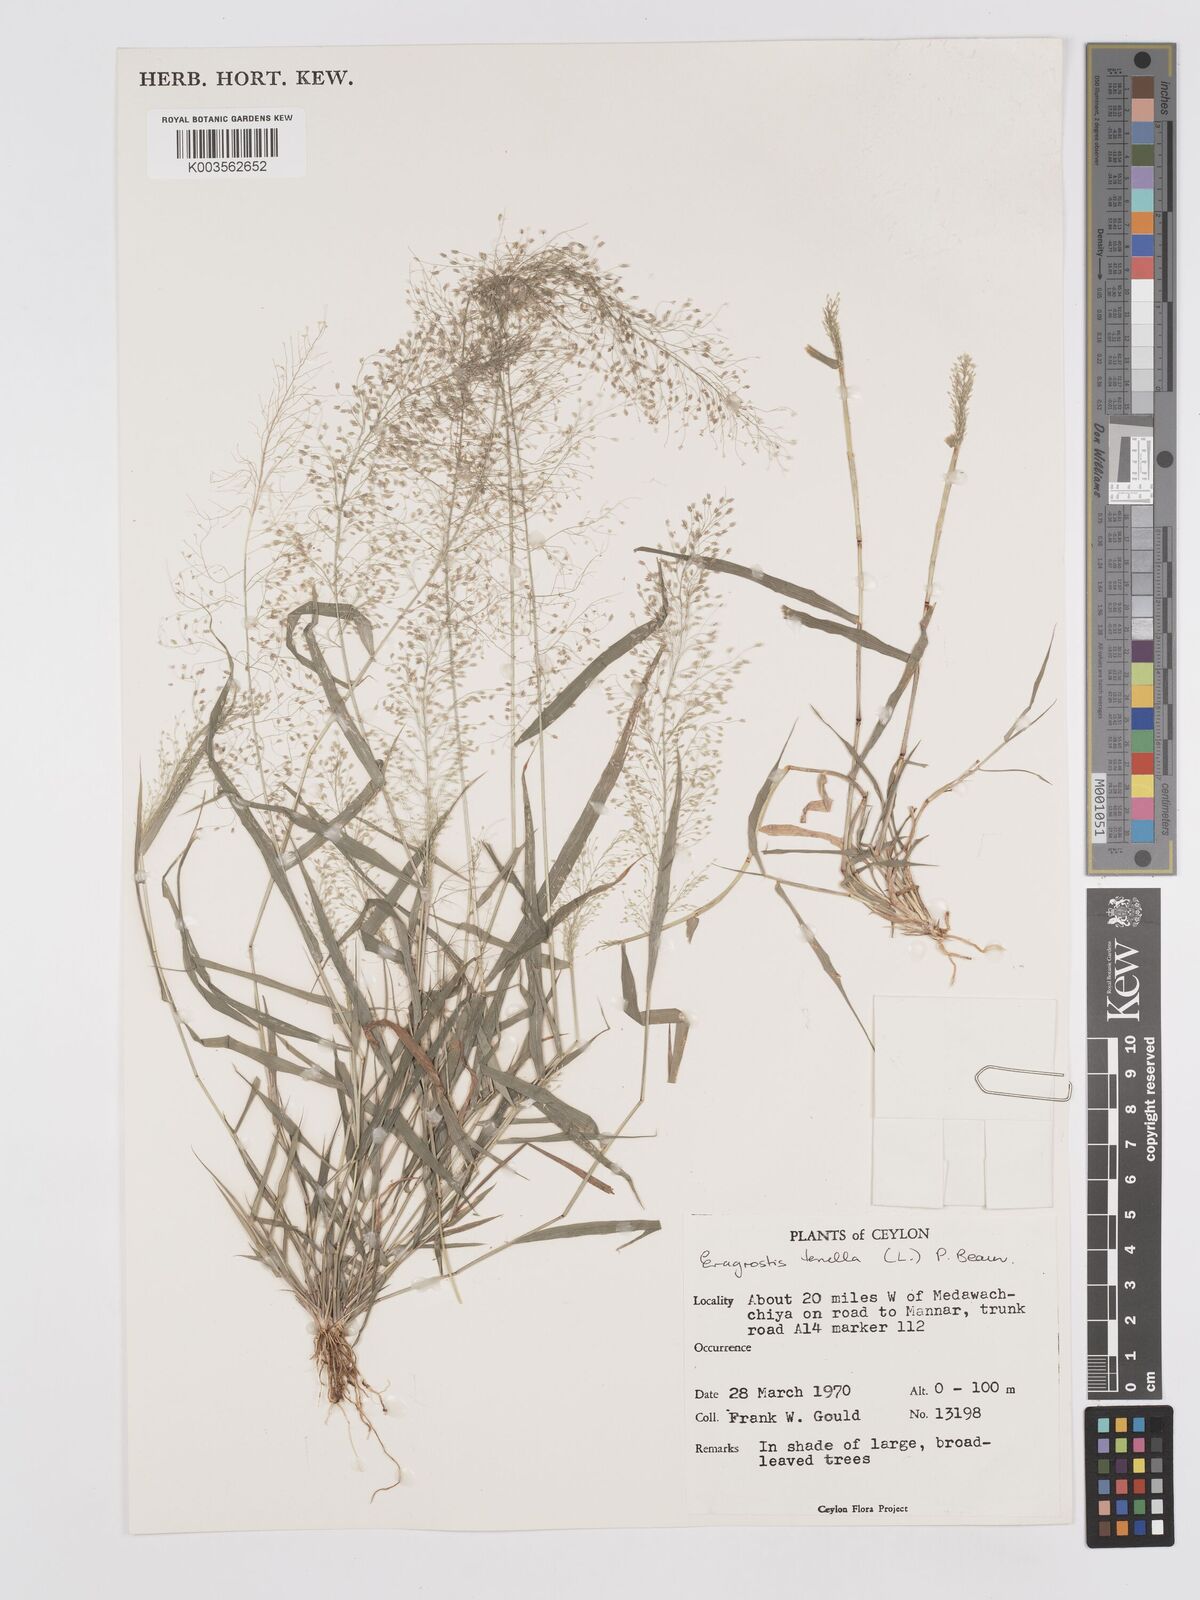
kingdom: Plantae
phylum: Tracheophyta
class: Liliopsida
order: Poales
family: Poaceae
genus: Eragrostis
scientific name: Eragrostis tenella
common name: Japanese lovegrass
